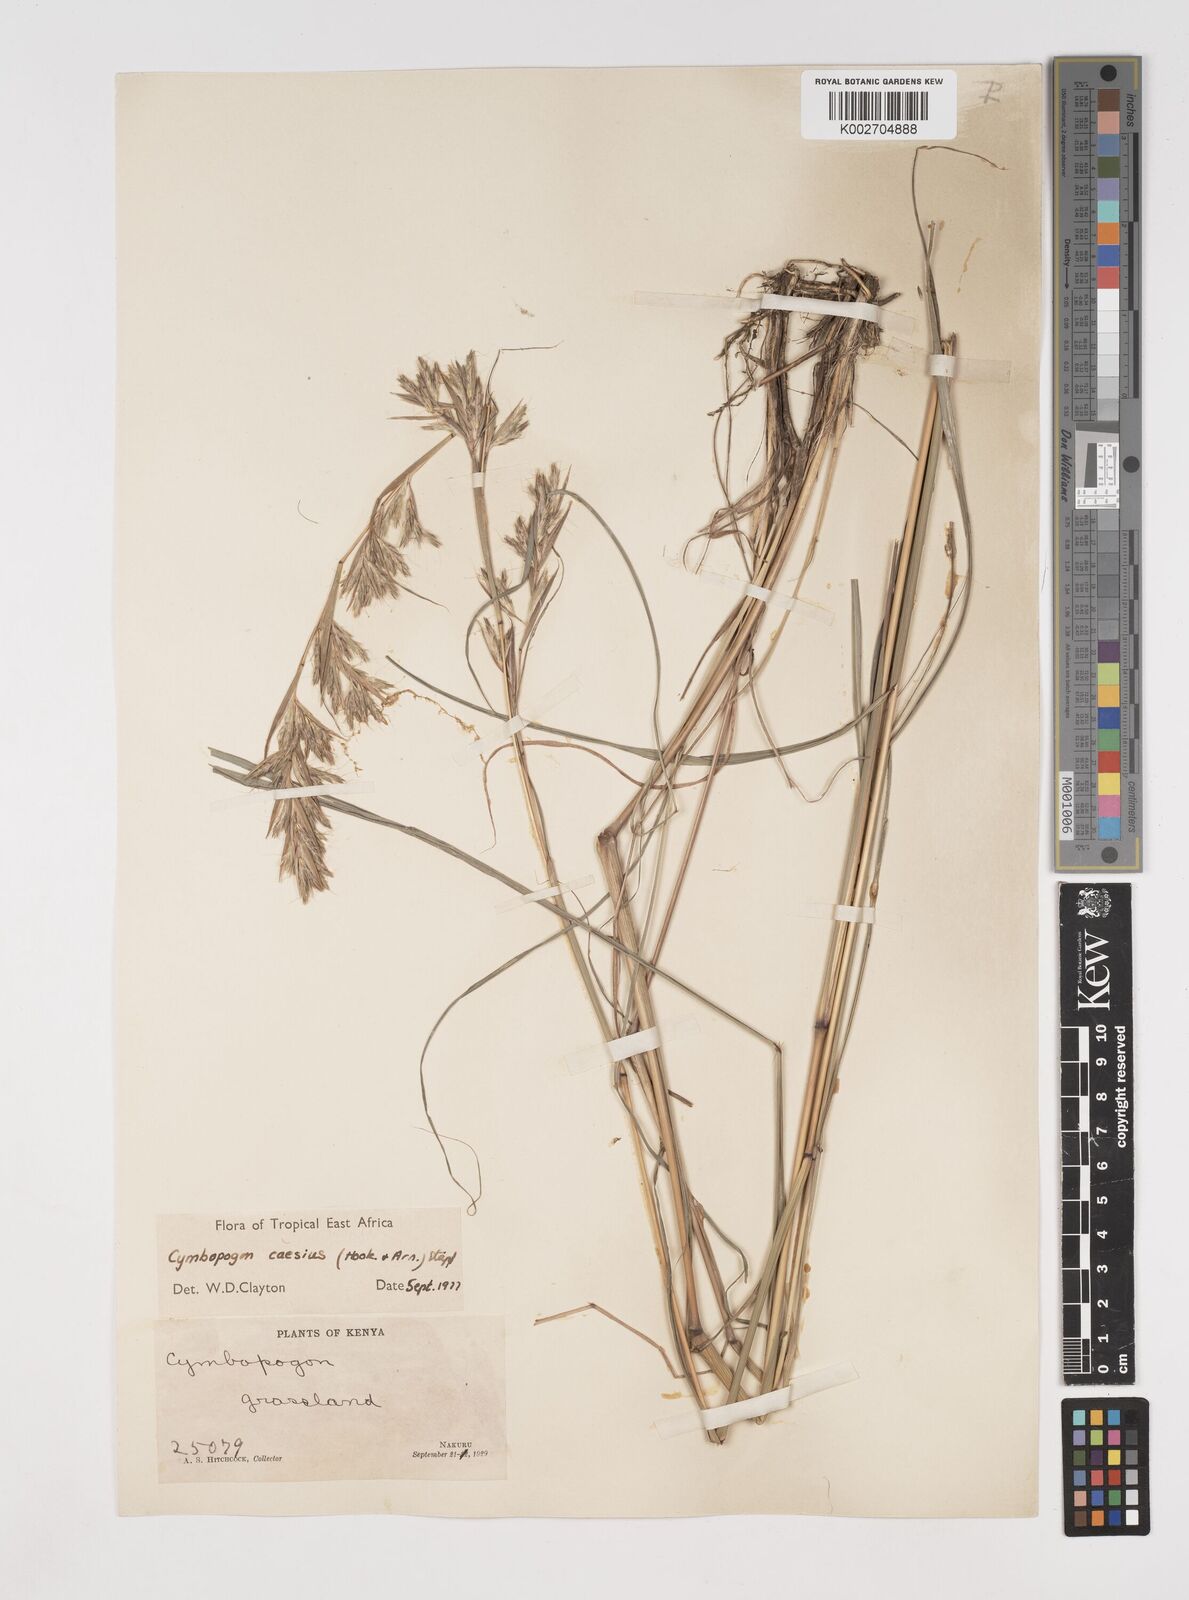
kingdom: Plantae
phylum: Tracheophyta
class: Liliopsida
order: Poales
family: Poaceae
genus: Cymbopogon
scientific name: Cymbopogon caesius
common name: Kachi grass
